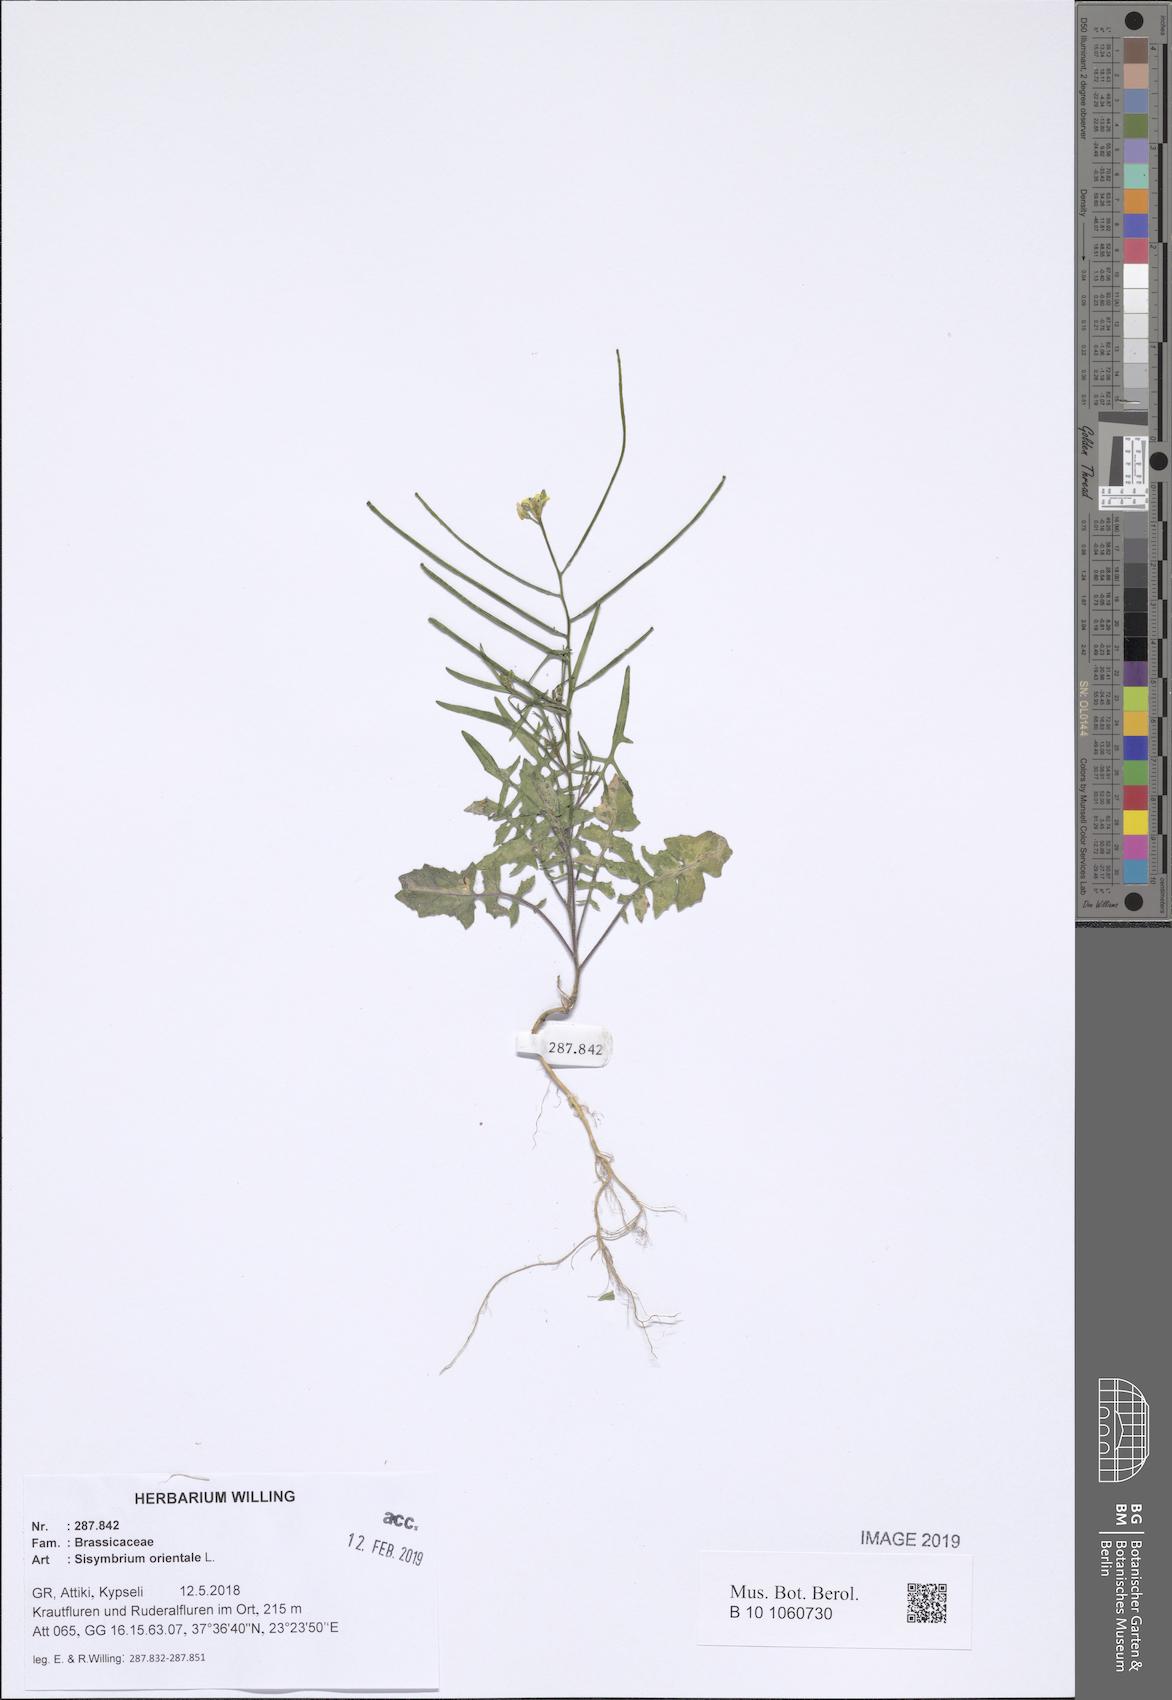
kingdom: Plantae
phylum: Tracheophyta
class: Magnoliopsida
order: Brassicales
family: Brassicaceae
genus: Sisymbrium
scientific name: Sisymbrium orientale
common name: Eastern rocket
